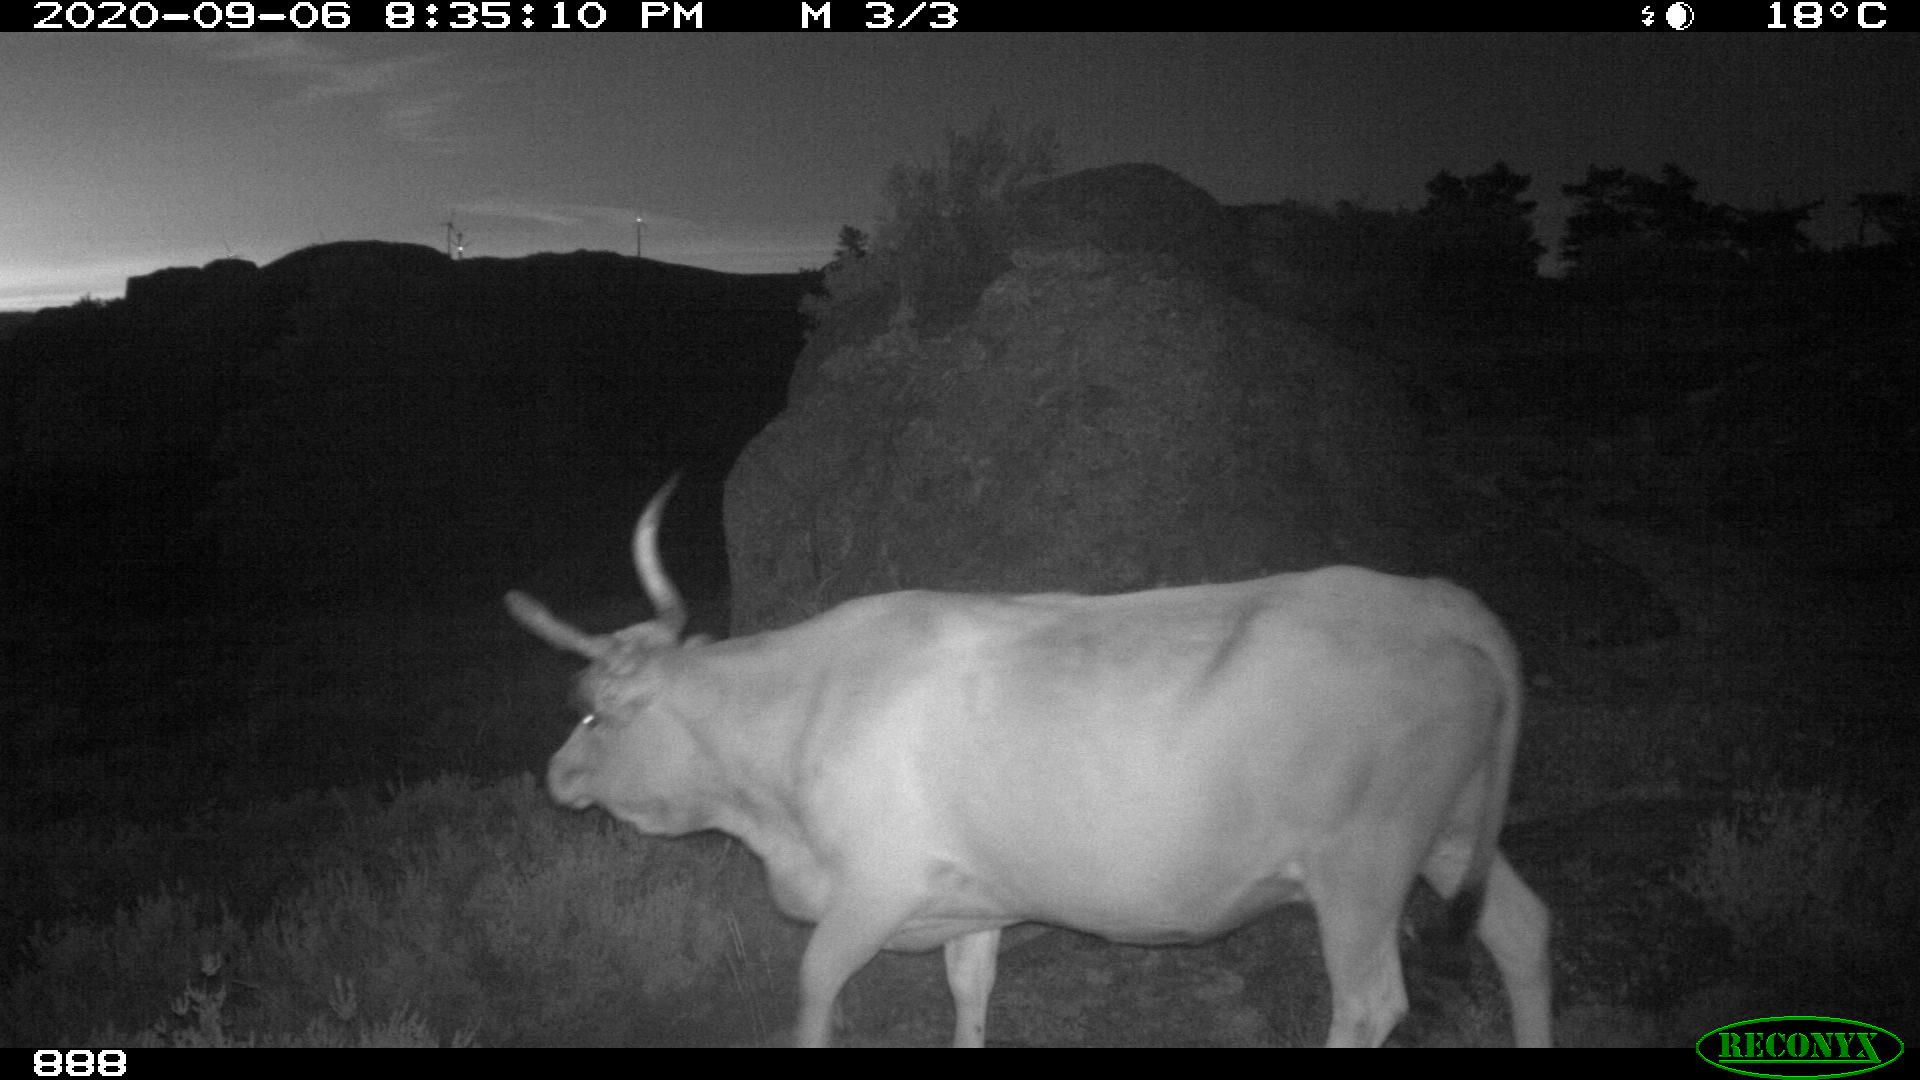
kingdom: Animalia
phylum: Chordata
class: Mammalia
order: Artiodactyla
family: Bovidae
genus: Bos
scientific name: Bos taurus
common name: Domesticated cattle
